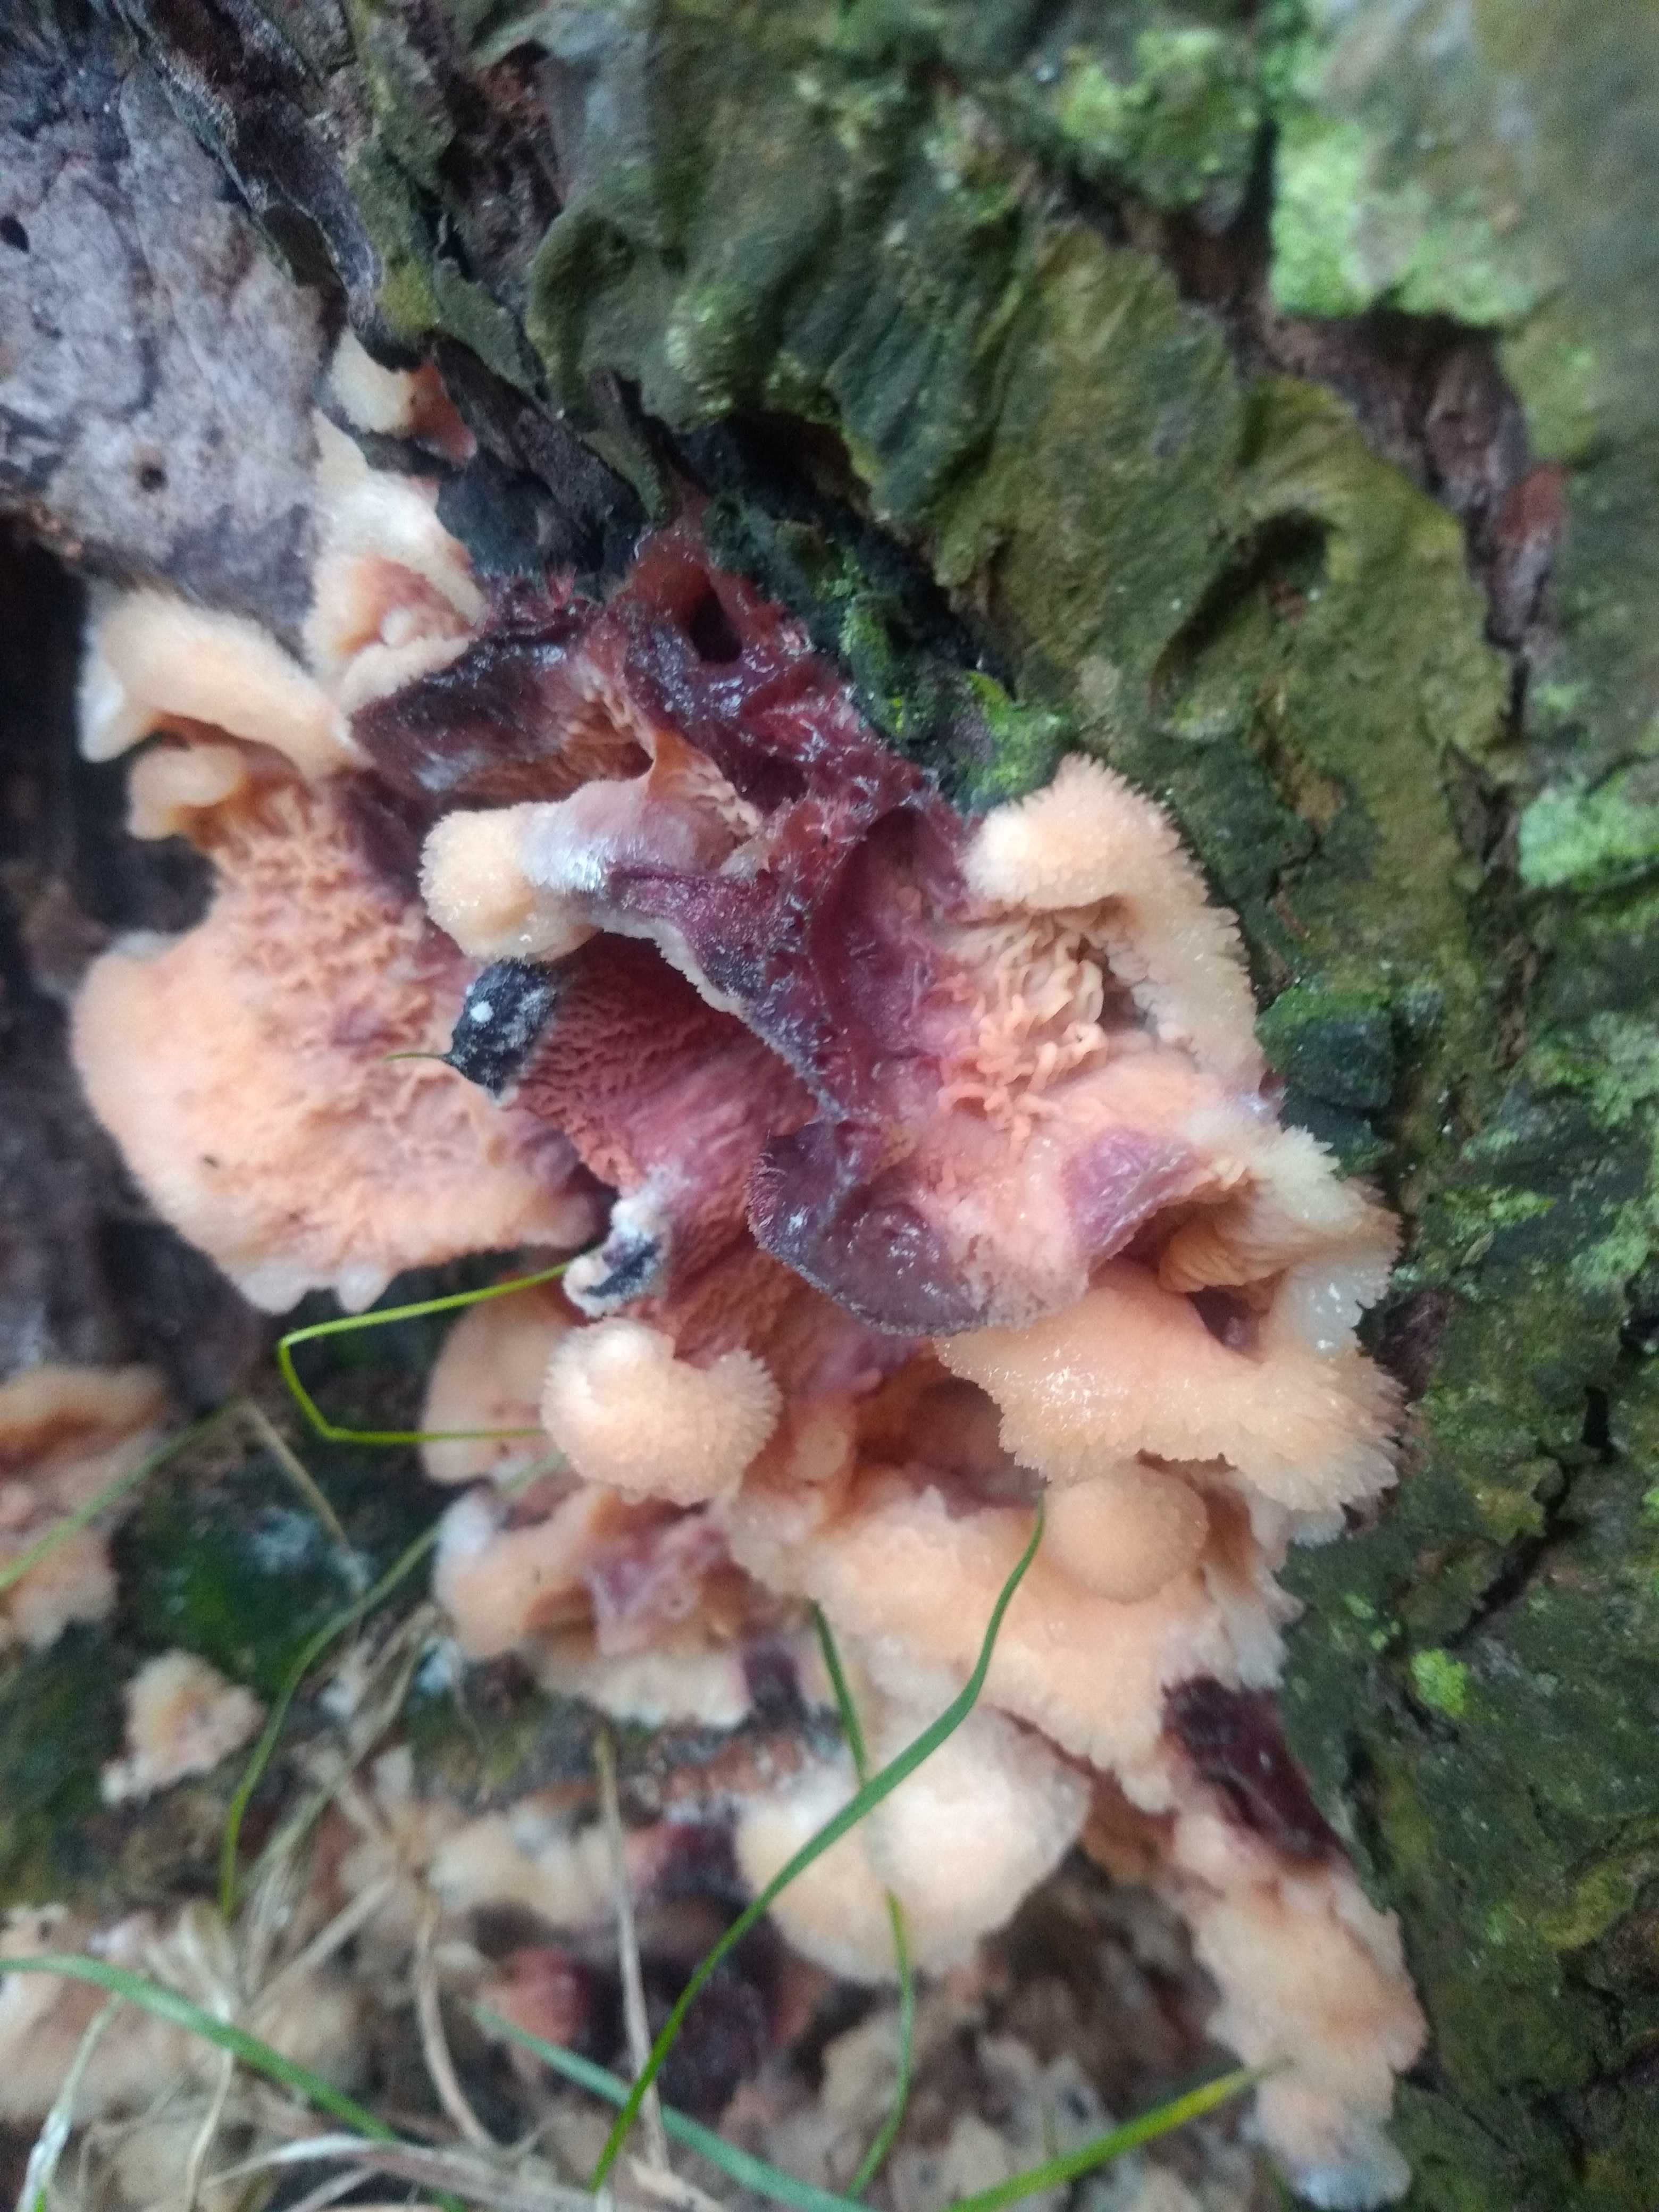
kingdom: Fungi
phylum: Basidiomycota
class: Agaricomycetes
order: Polyporales
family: Meruliaceae
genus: Phlebia
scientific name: Phlebia tremellosa
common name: bævrende åresvamp
